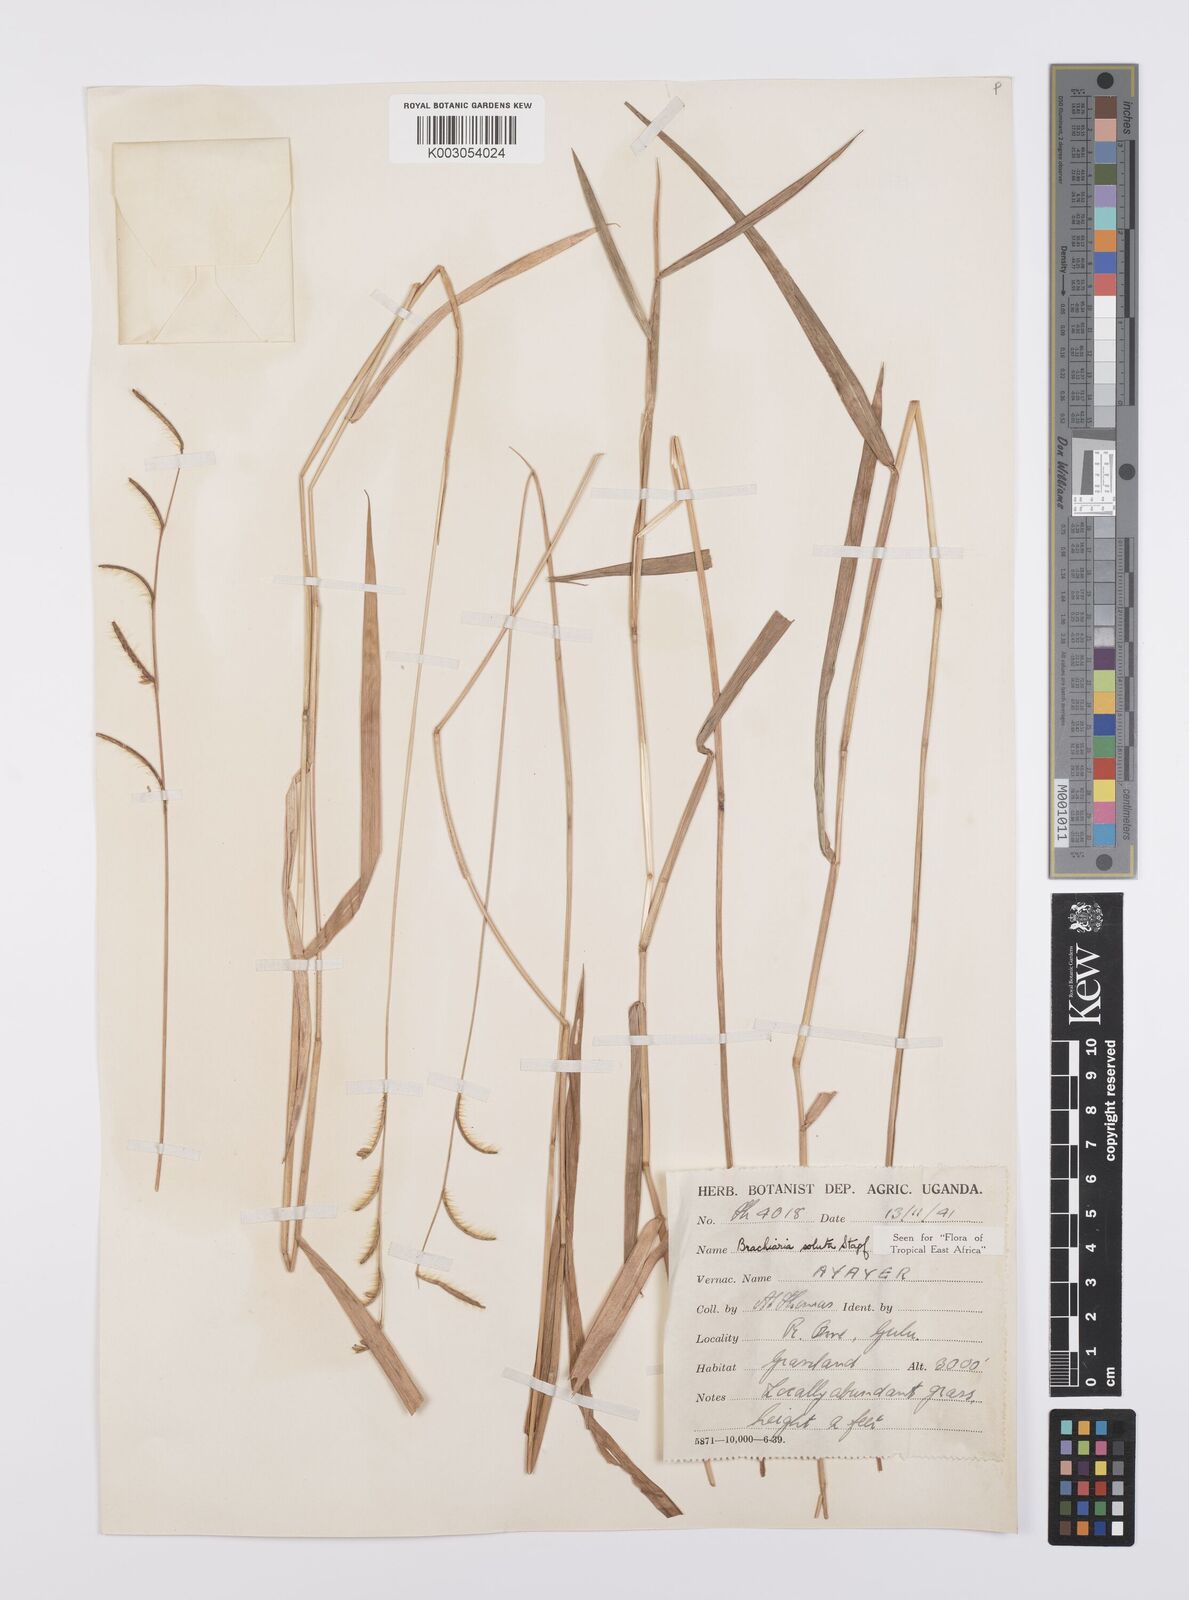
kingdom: Plantae
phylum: Tracheophyta
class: Liliopsida
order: Poales
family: Poaceae
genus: Urochloa
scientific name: Urochloa jubata
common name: Buffalograss
